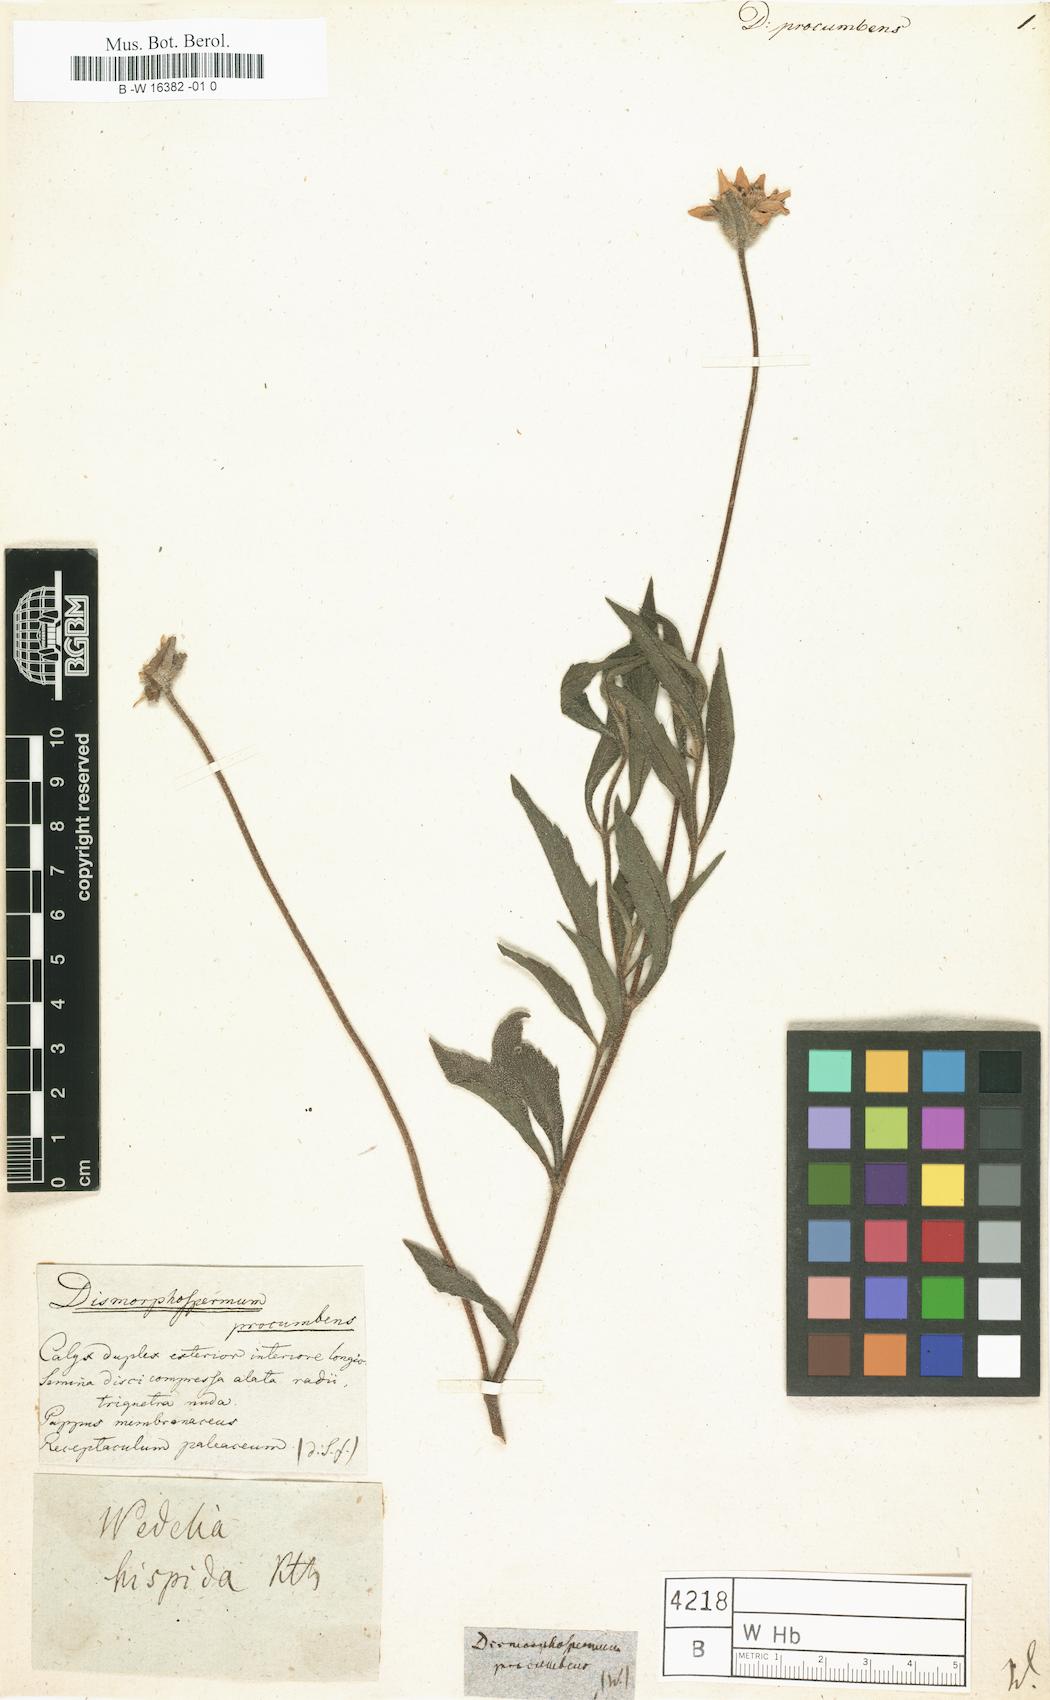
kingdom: Plantae
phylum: Tracheophyta
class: Magnoliopsida
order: Asterales
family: Asteraceae
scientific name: Asteraceae
